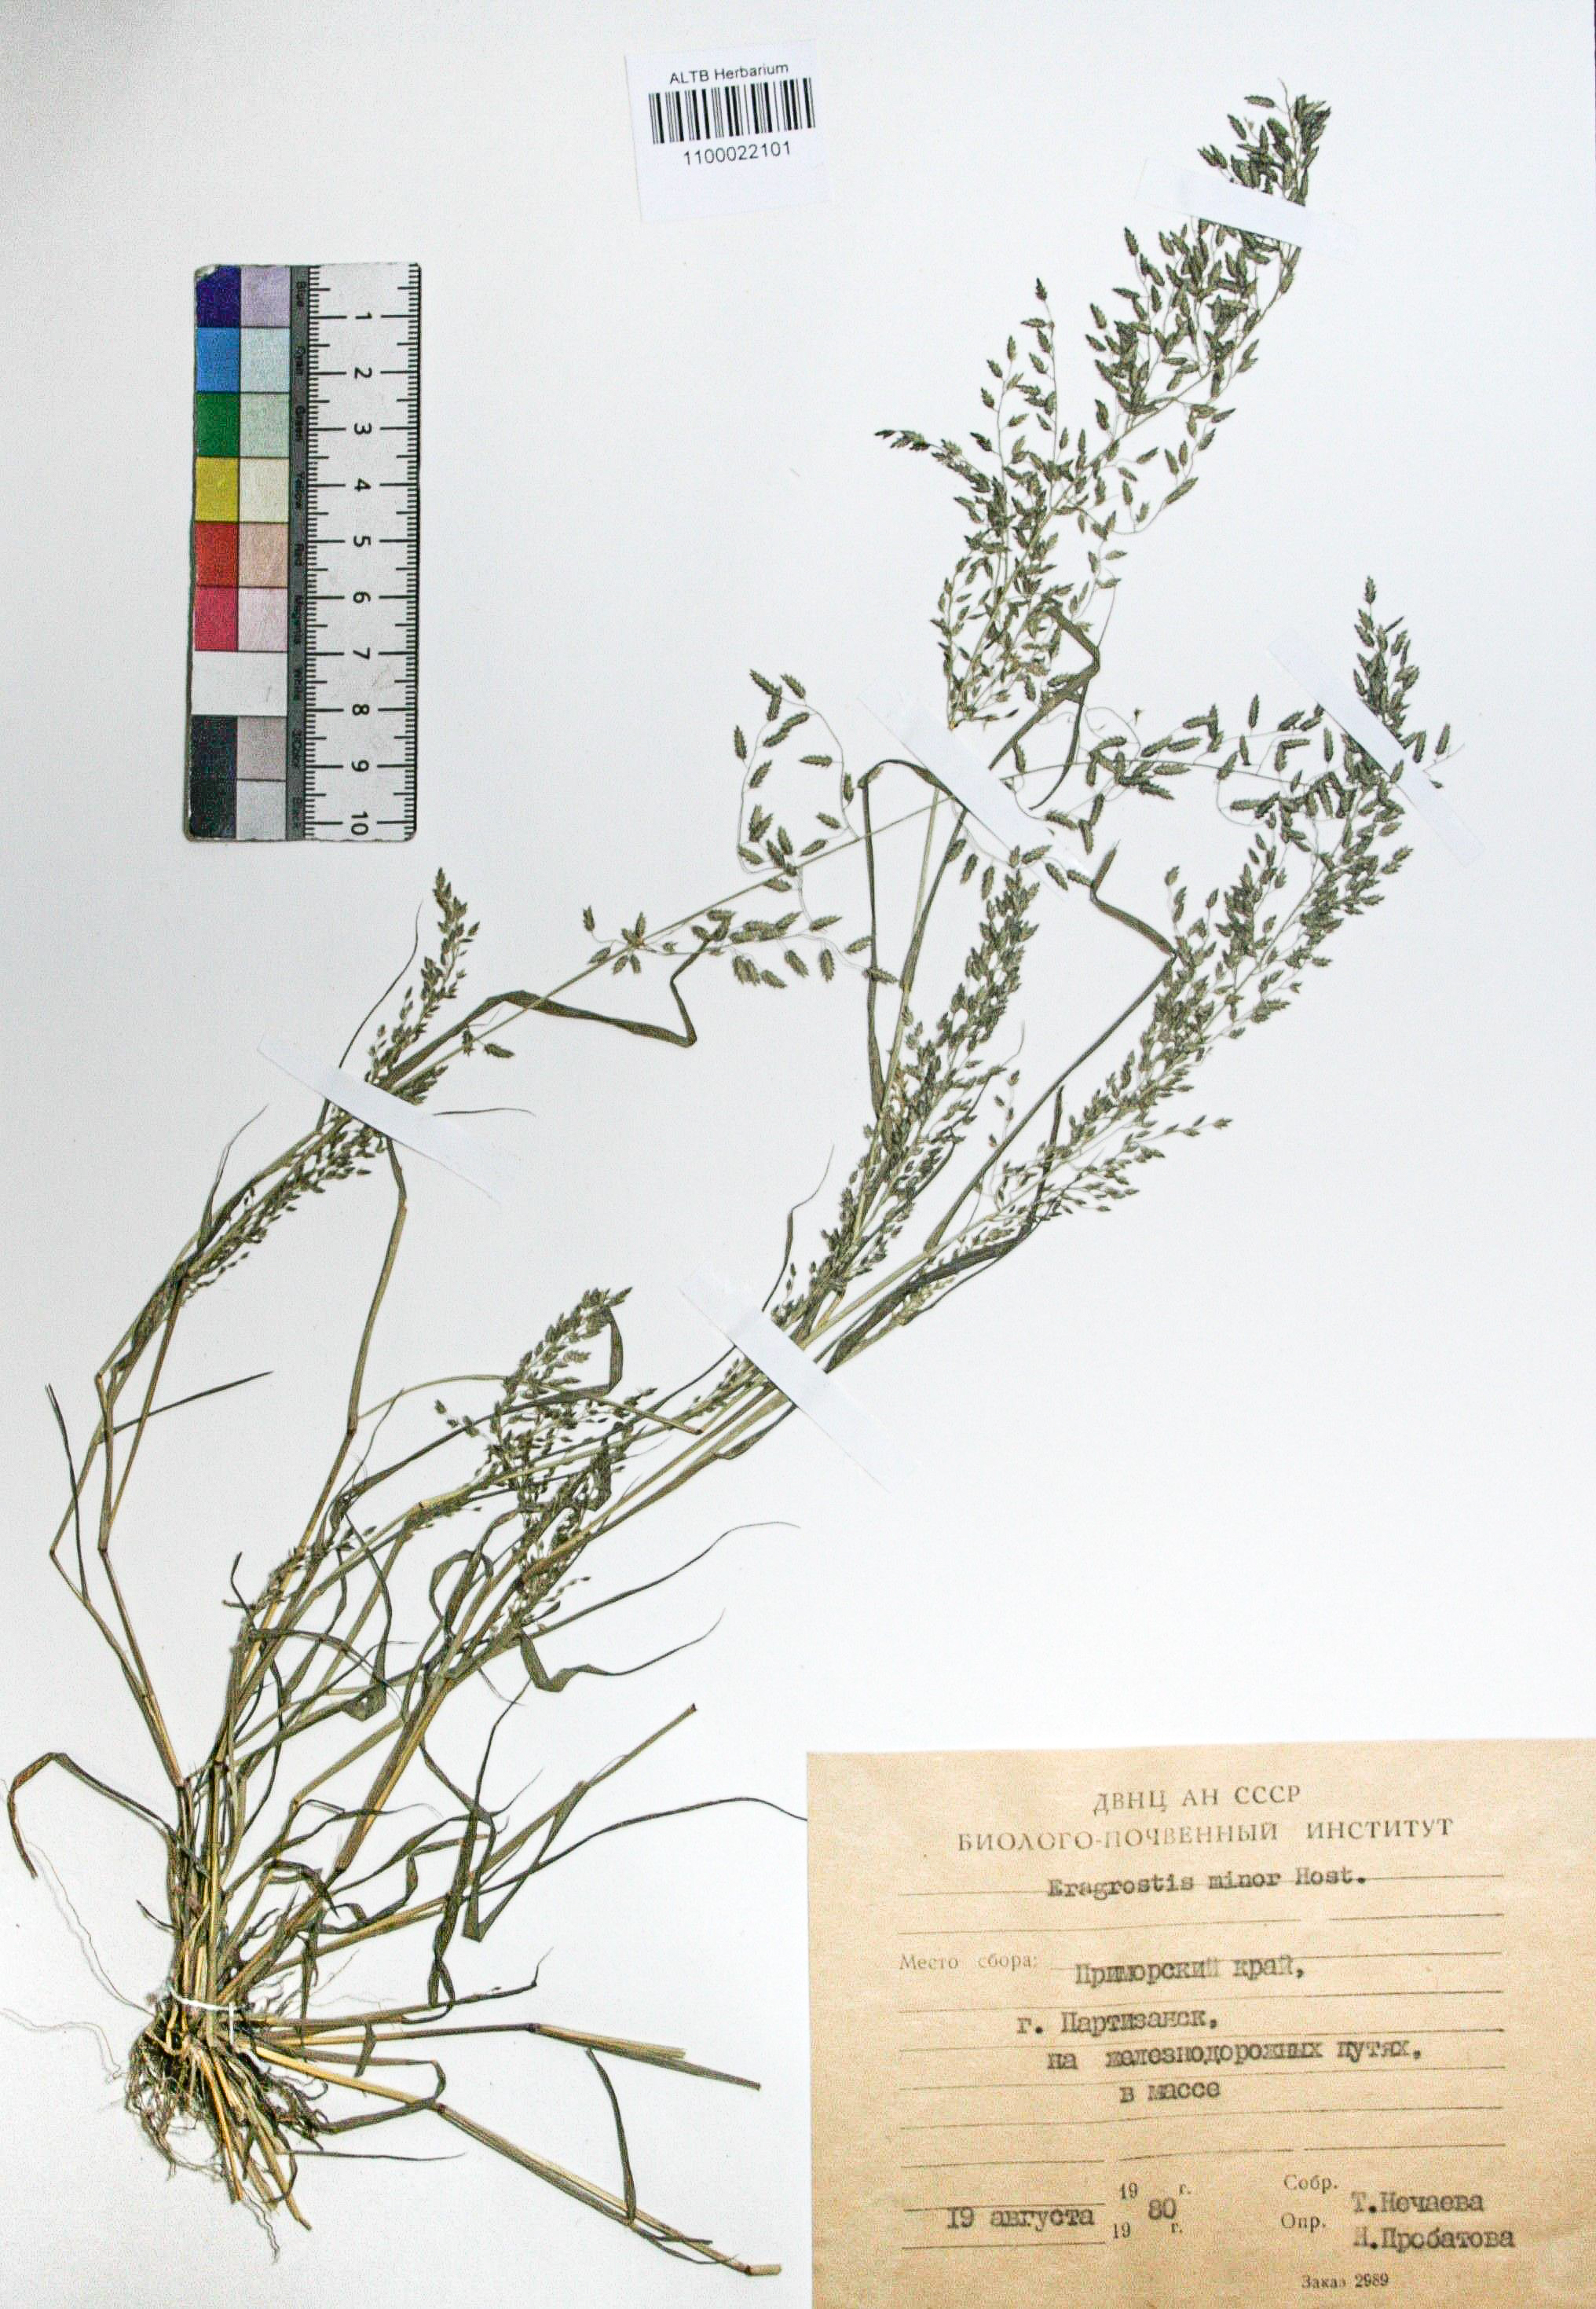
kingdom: Plantae
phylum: Tracheophyta
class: Liliopsida
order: Poales
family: Poaceae
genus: Eragrostis
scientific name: Eragrostis minor
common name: Small love-grass
